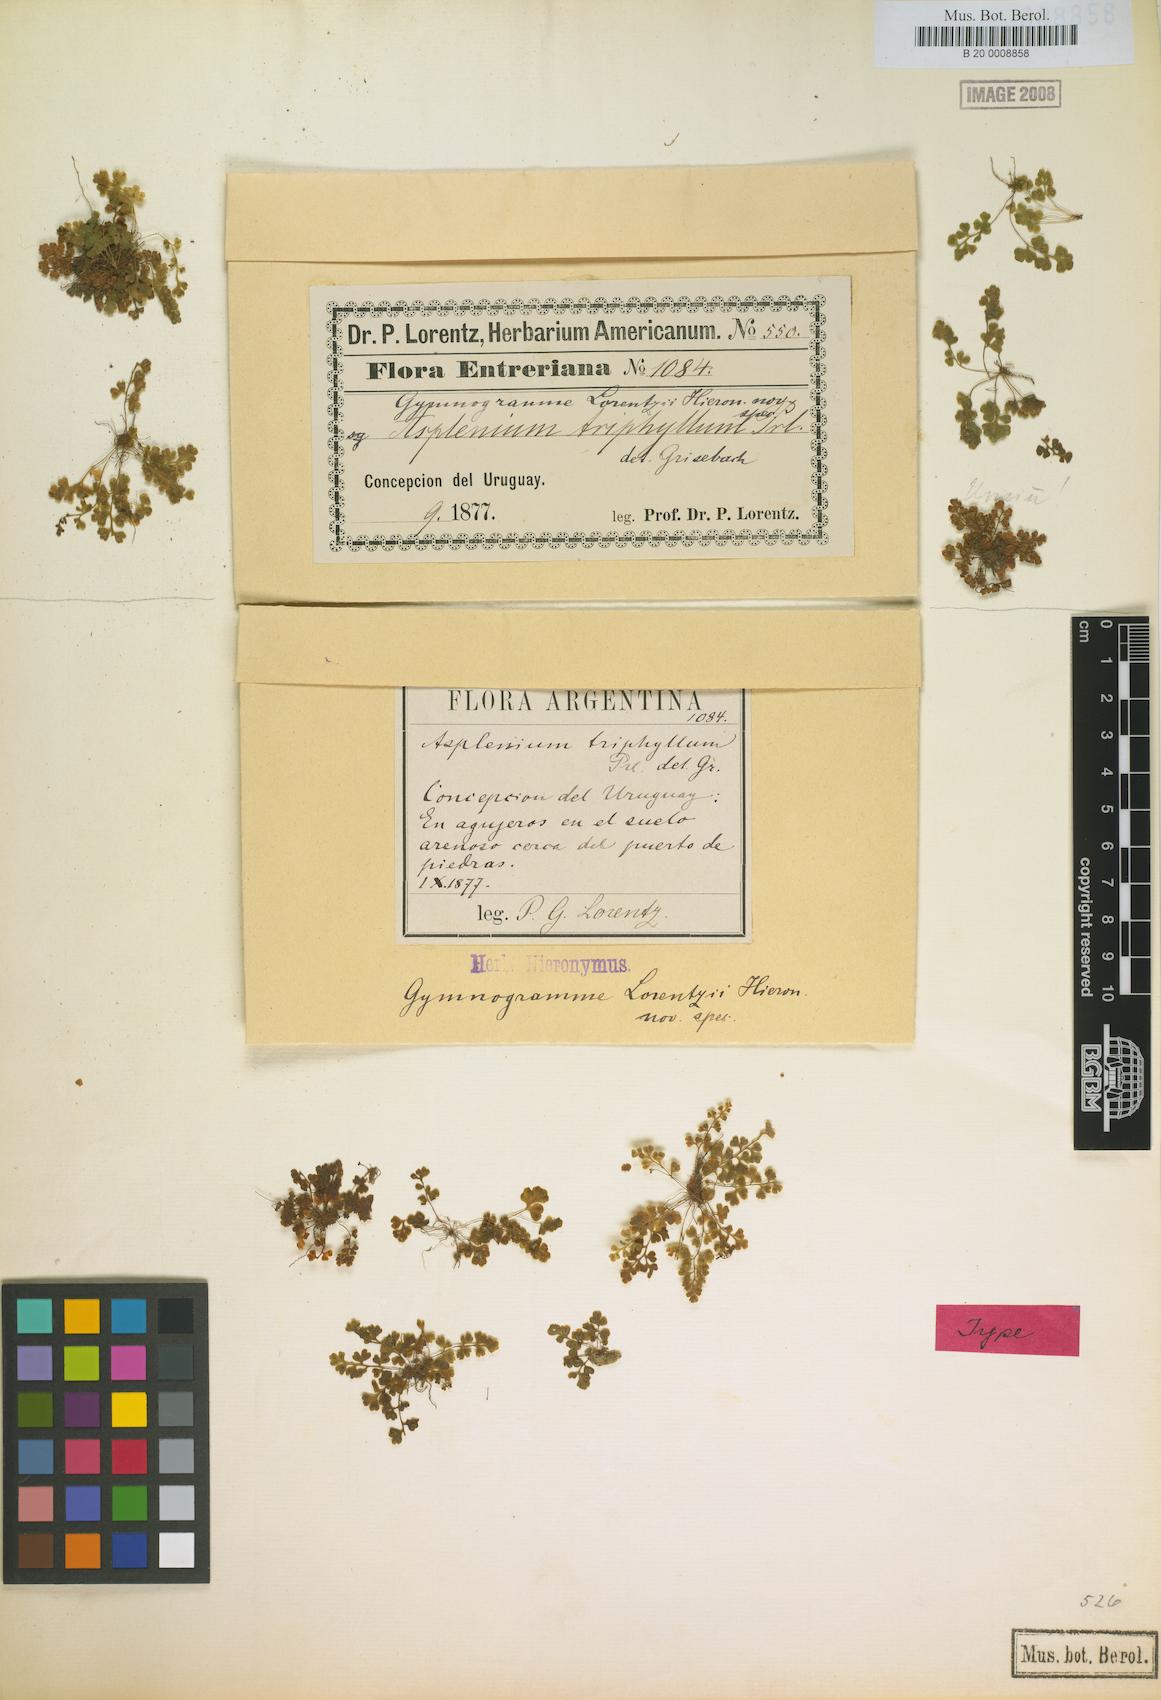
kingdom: Plantae
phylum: Tracheophyta
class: Polypodiopsida
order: Polypodiales
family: Pteridaceae
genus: Anogramma
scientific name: Anogramma lorentzii
